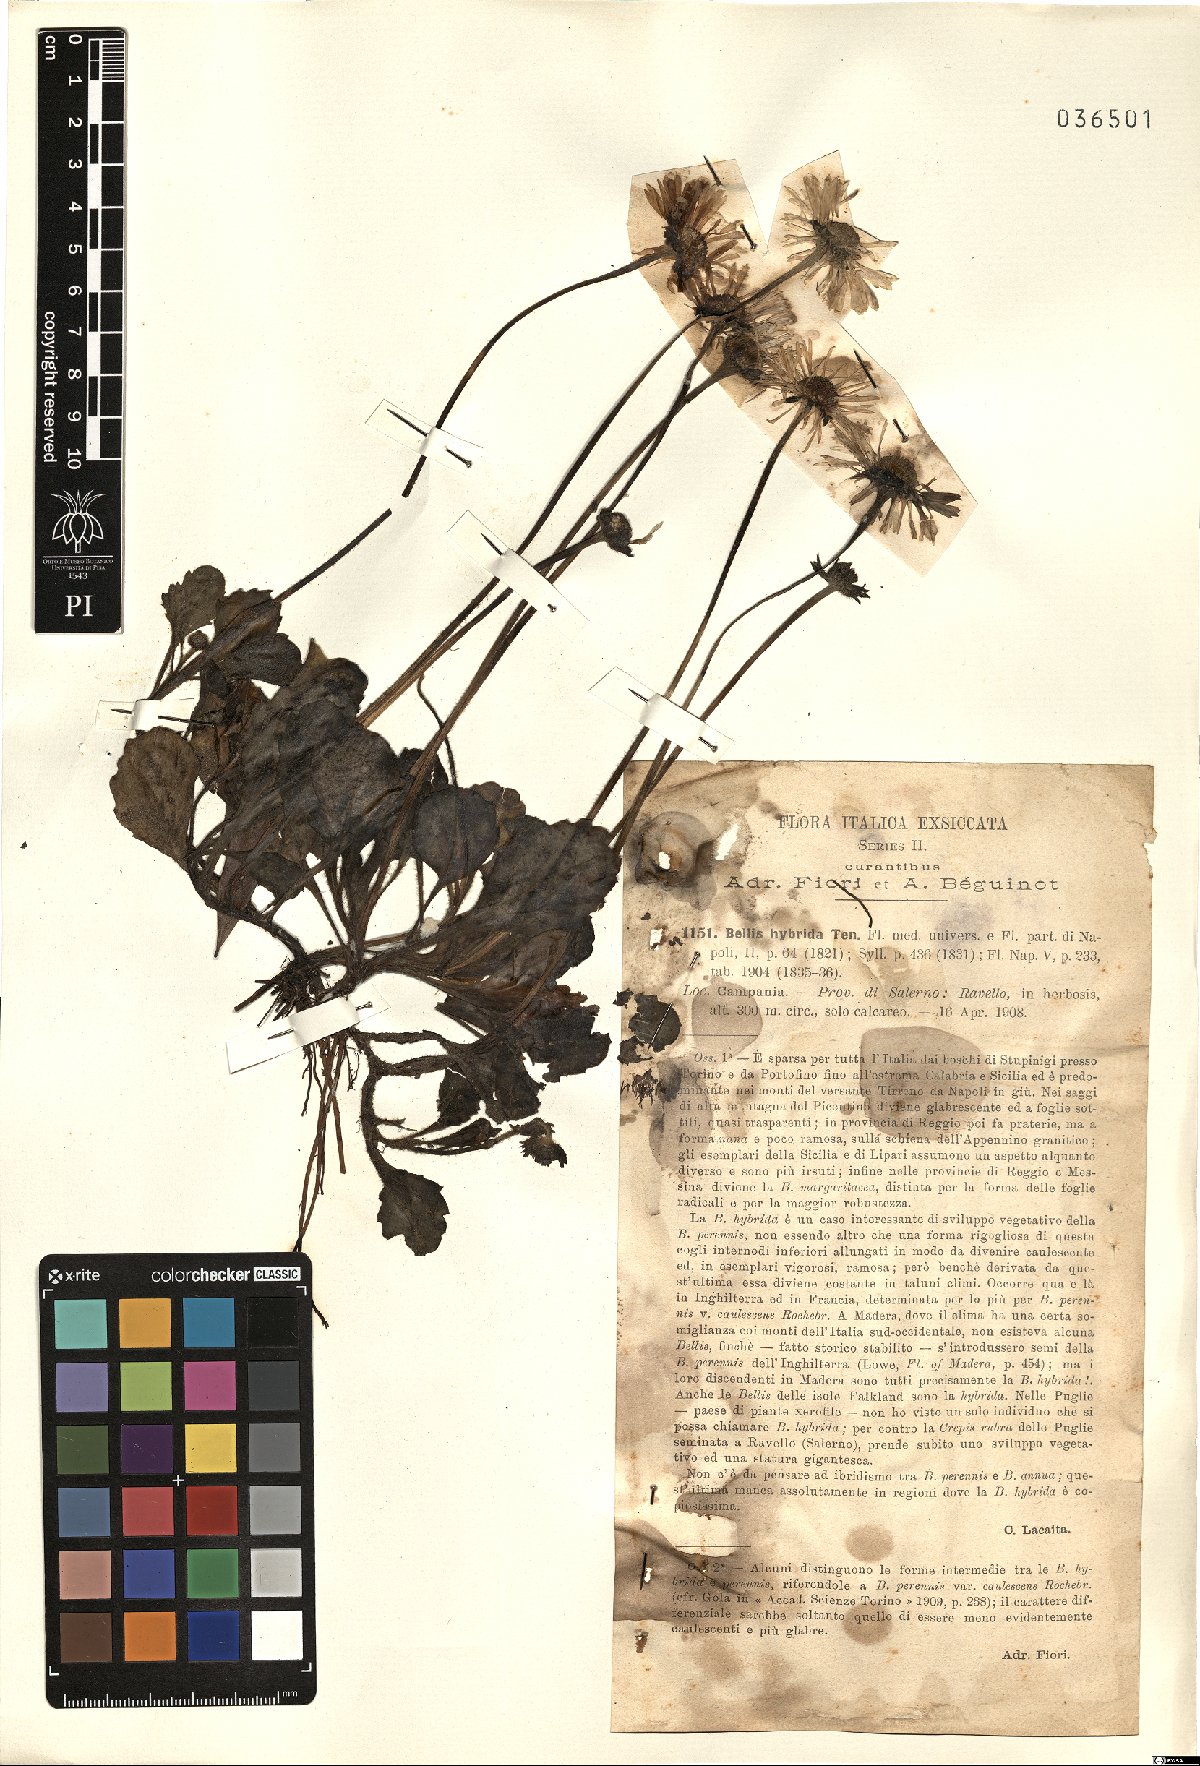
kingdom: Plantae
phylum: Tracheophyta
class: Magnoliopsida
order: Asterales
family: Asteraceae
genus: Bellis
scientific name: Bellis perennis
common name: Lawndaisy
